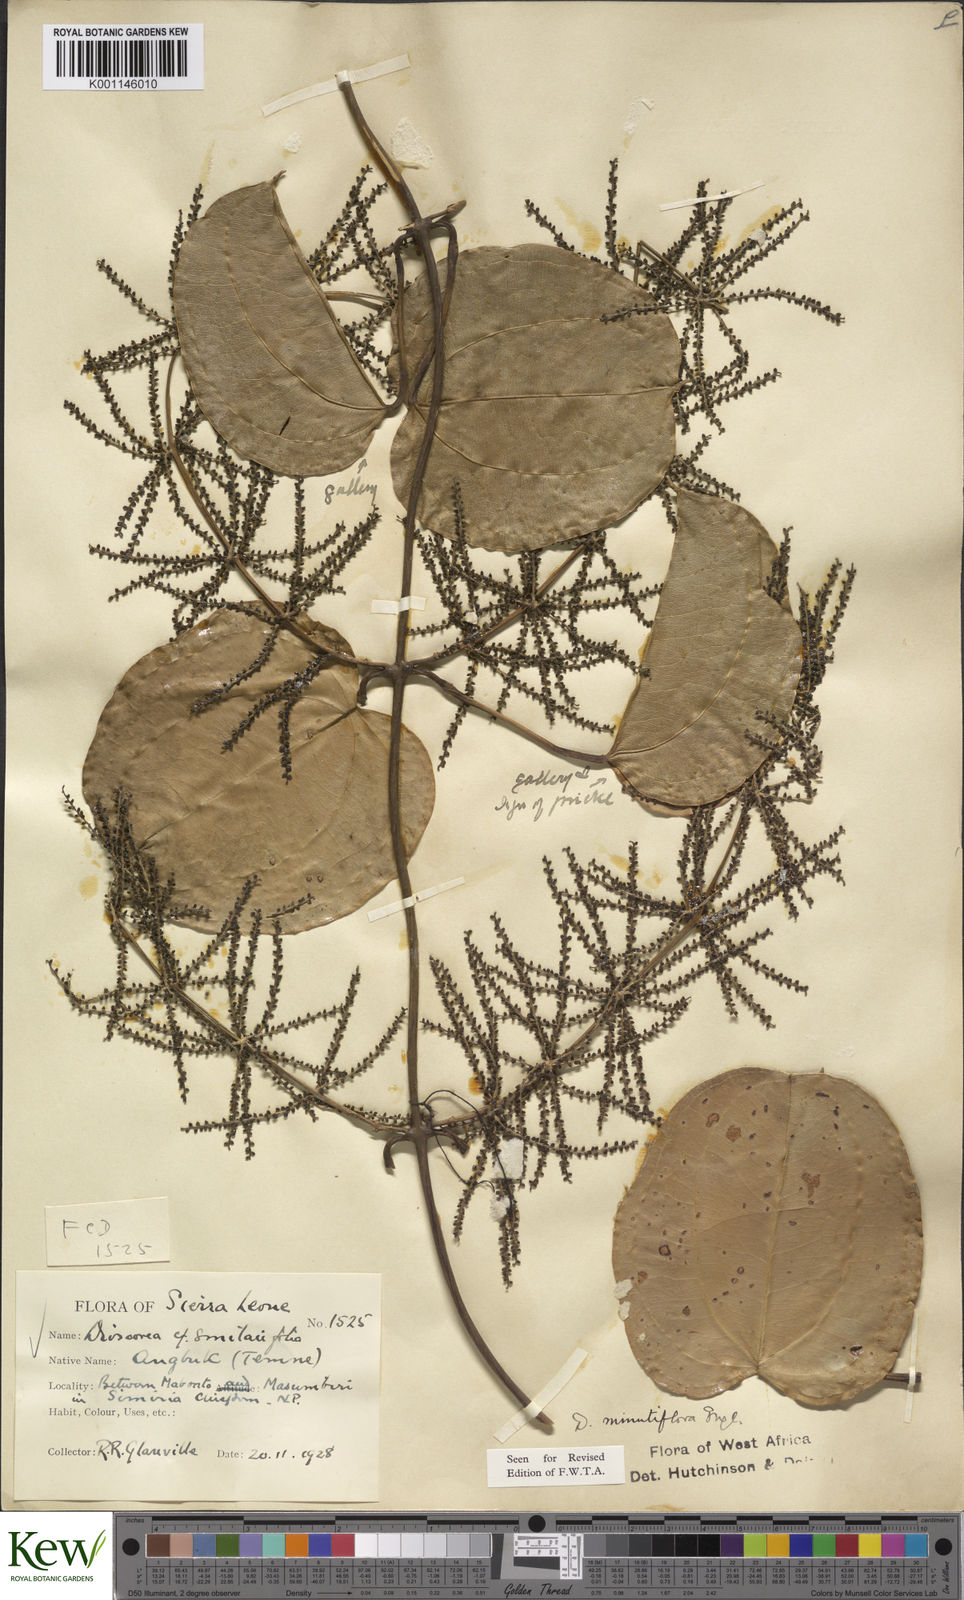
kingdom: Plantae
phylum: Tracheophyta
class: Liliopsida
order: Dioscoreales
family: Dioscoreaceae
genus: Dioscorea
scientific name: Dioscorea minutiflora
